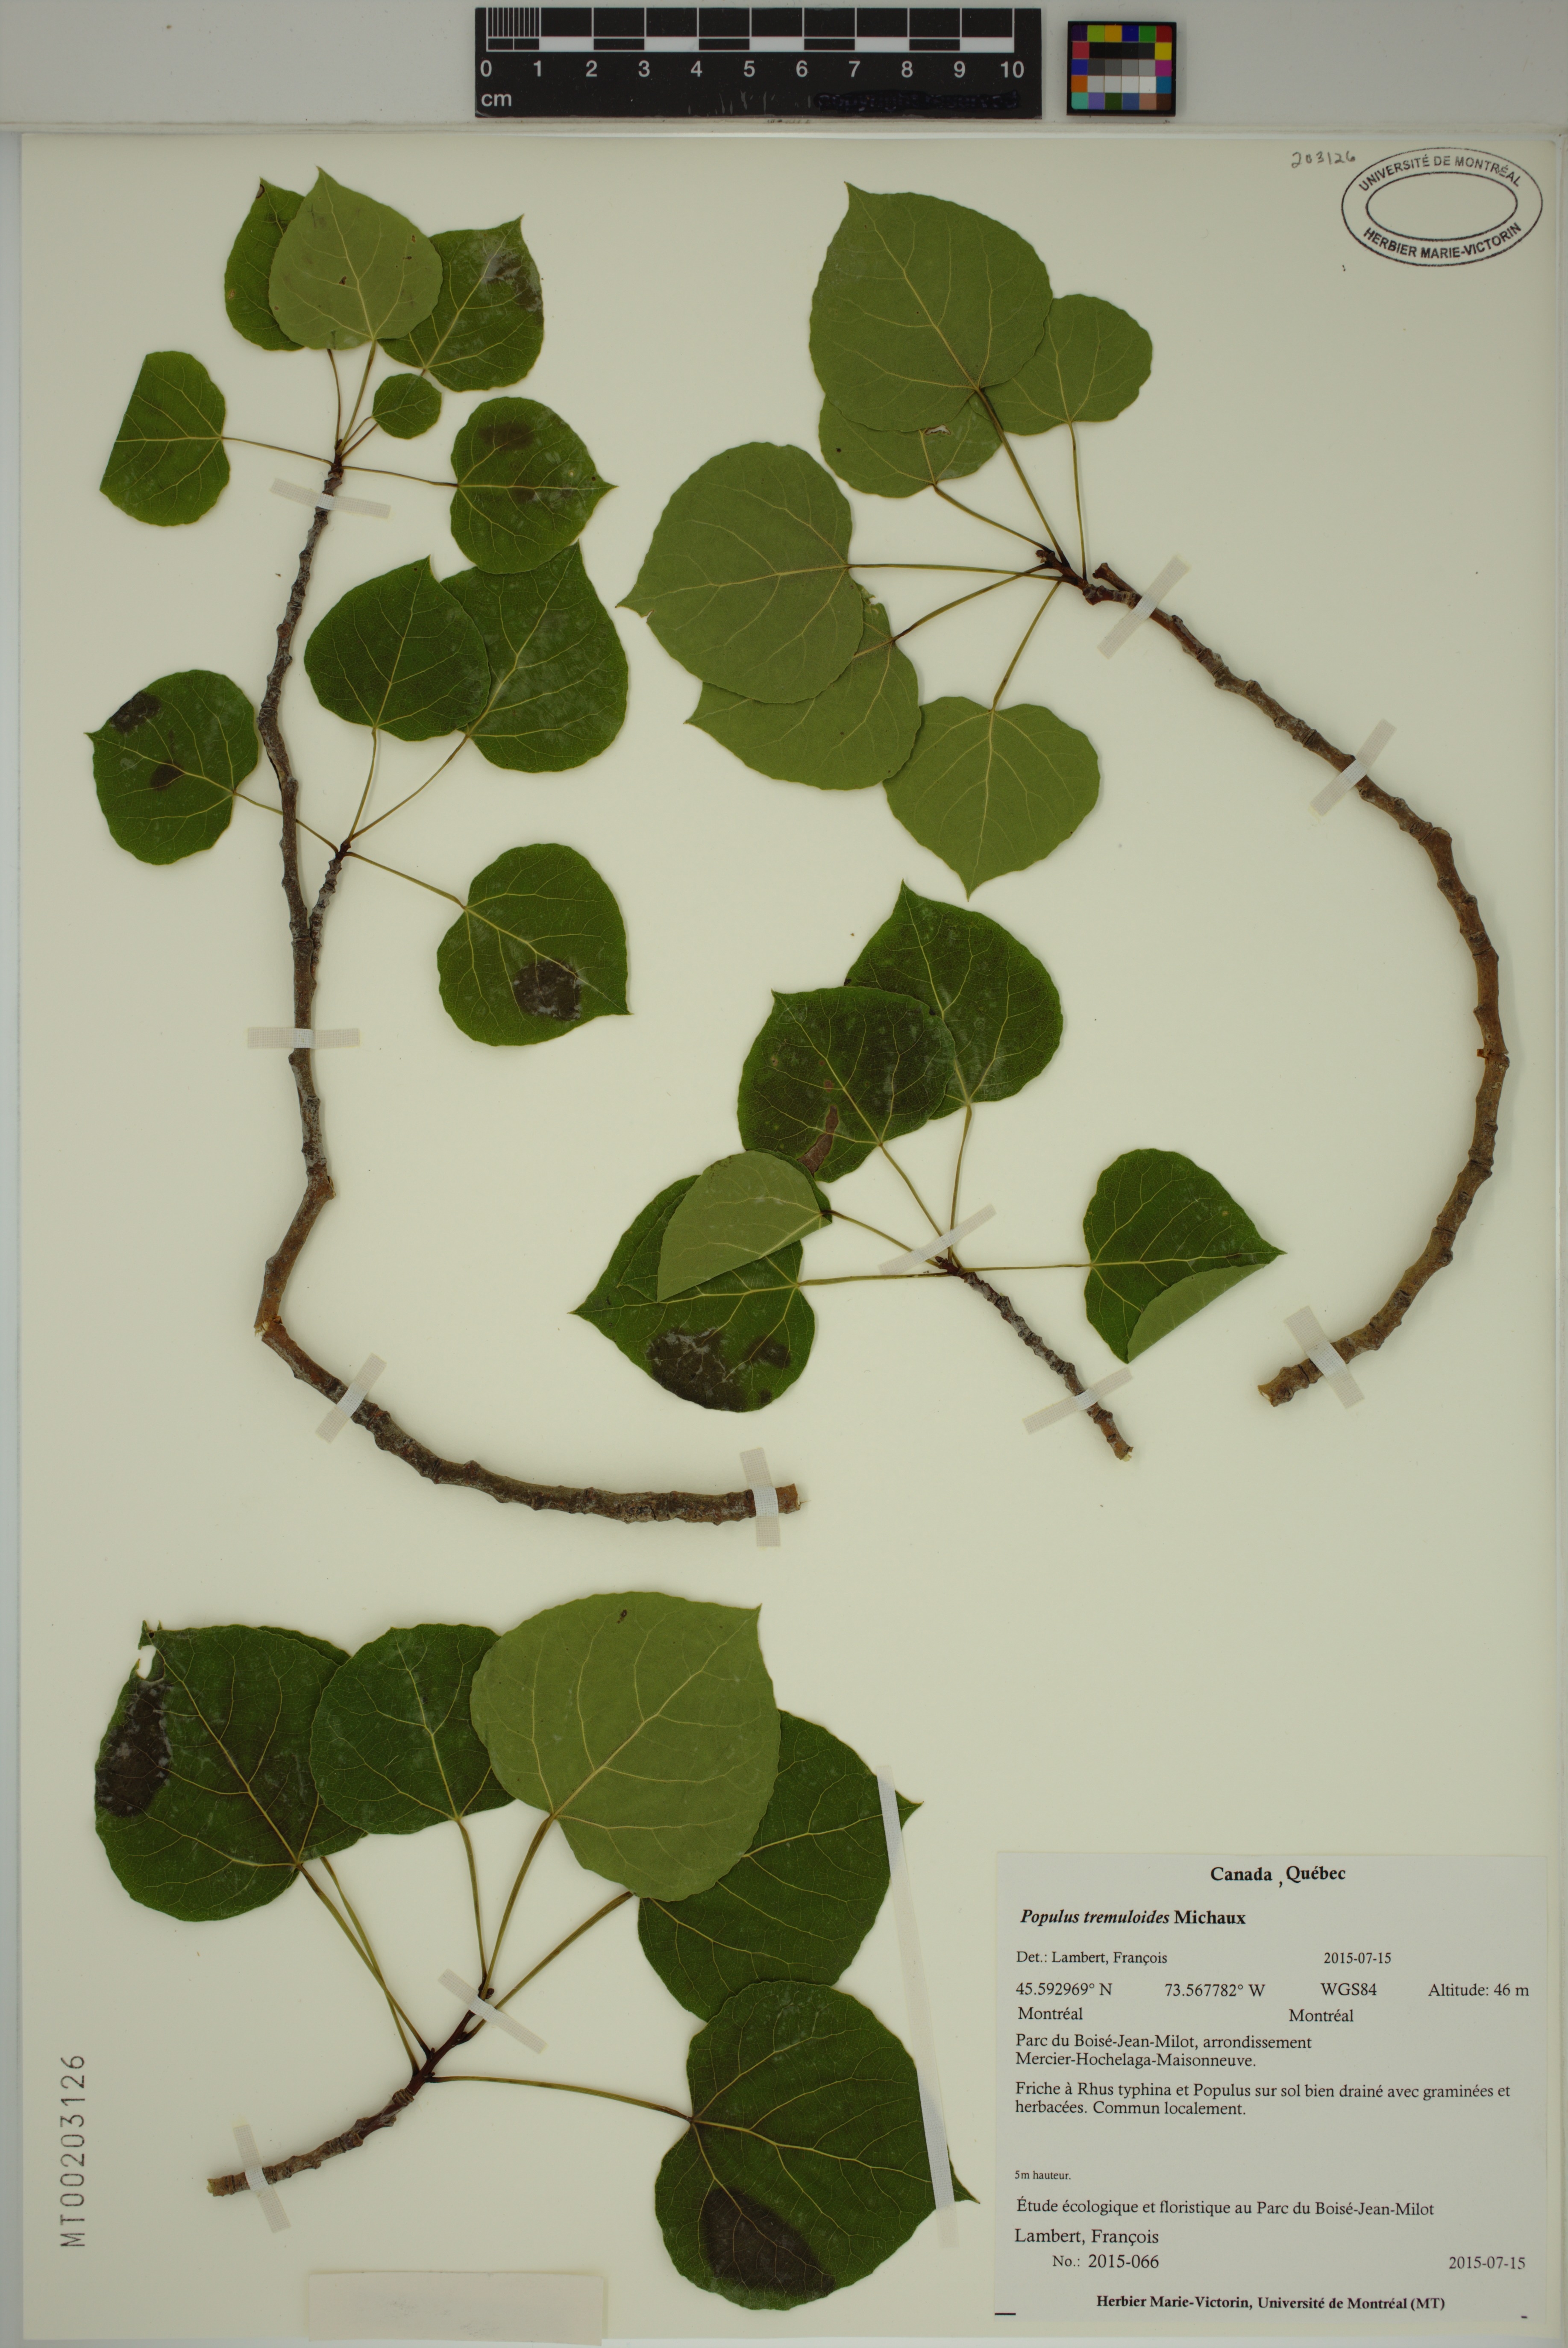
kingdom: Plantae
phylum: Tracheophyta
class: Magnoliopsida
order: Malpighiales
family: Salicaceae
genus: Populus
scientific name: Populus tremuloides
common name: Quaking aspen
